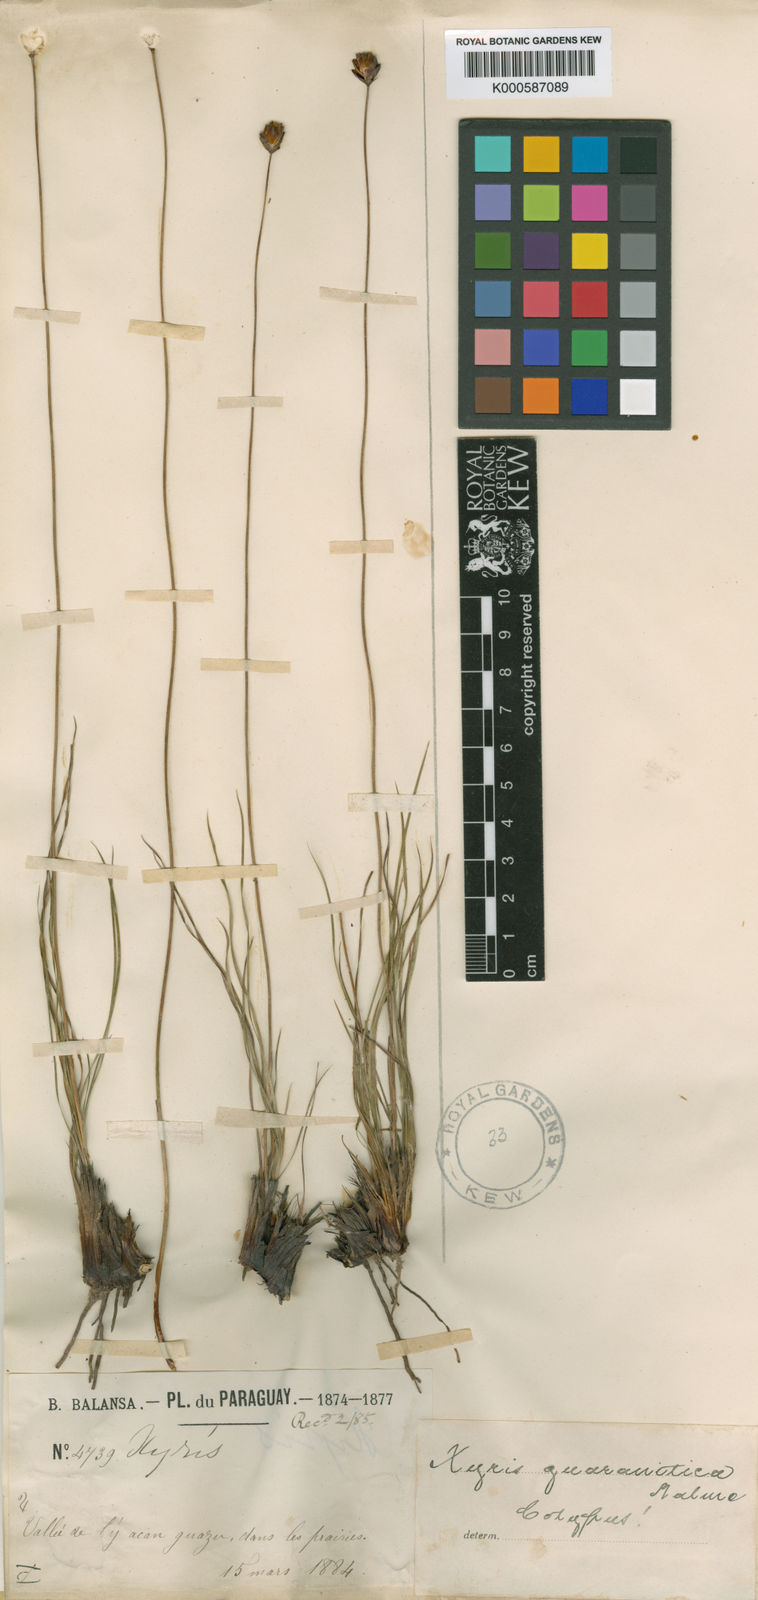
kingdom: Plantae
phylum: Tracheophyta
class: Liliopsida
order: Poales
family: Xyridaceae
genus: Xyris
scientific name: Xyris guaranitica
